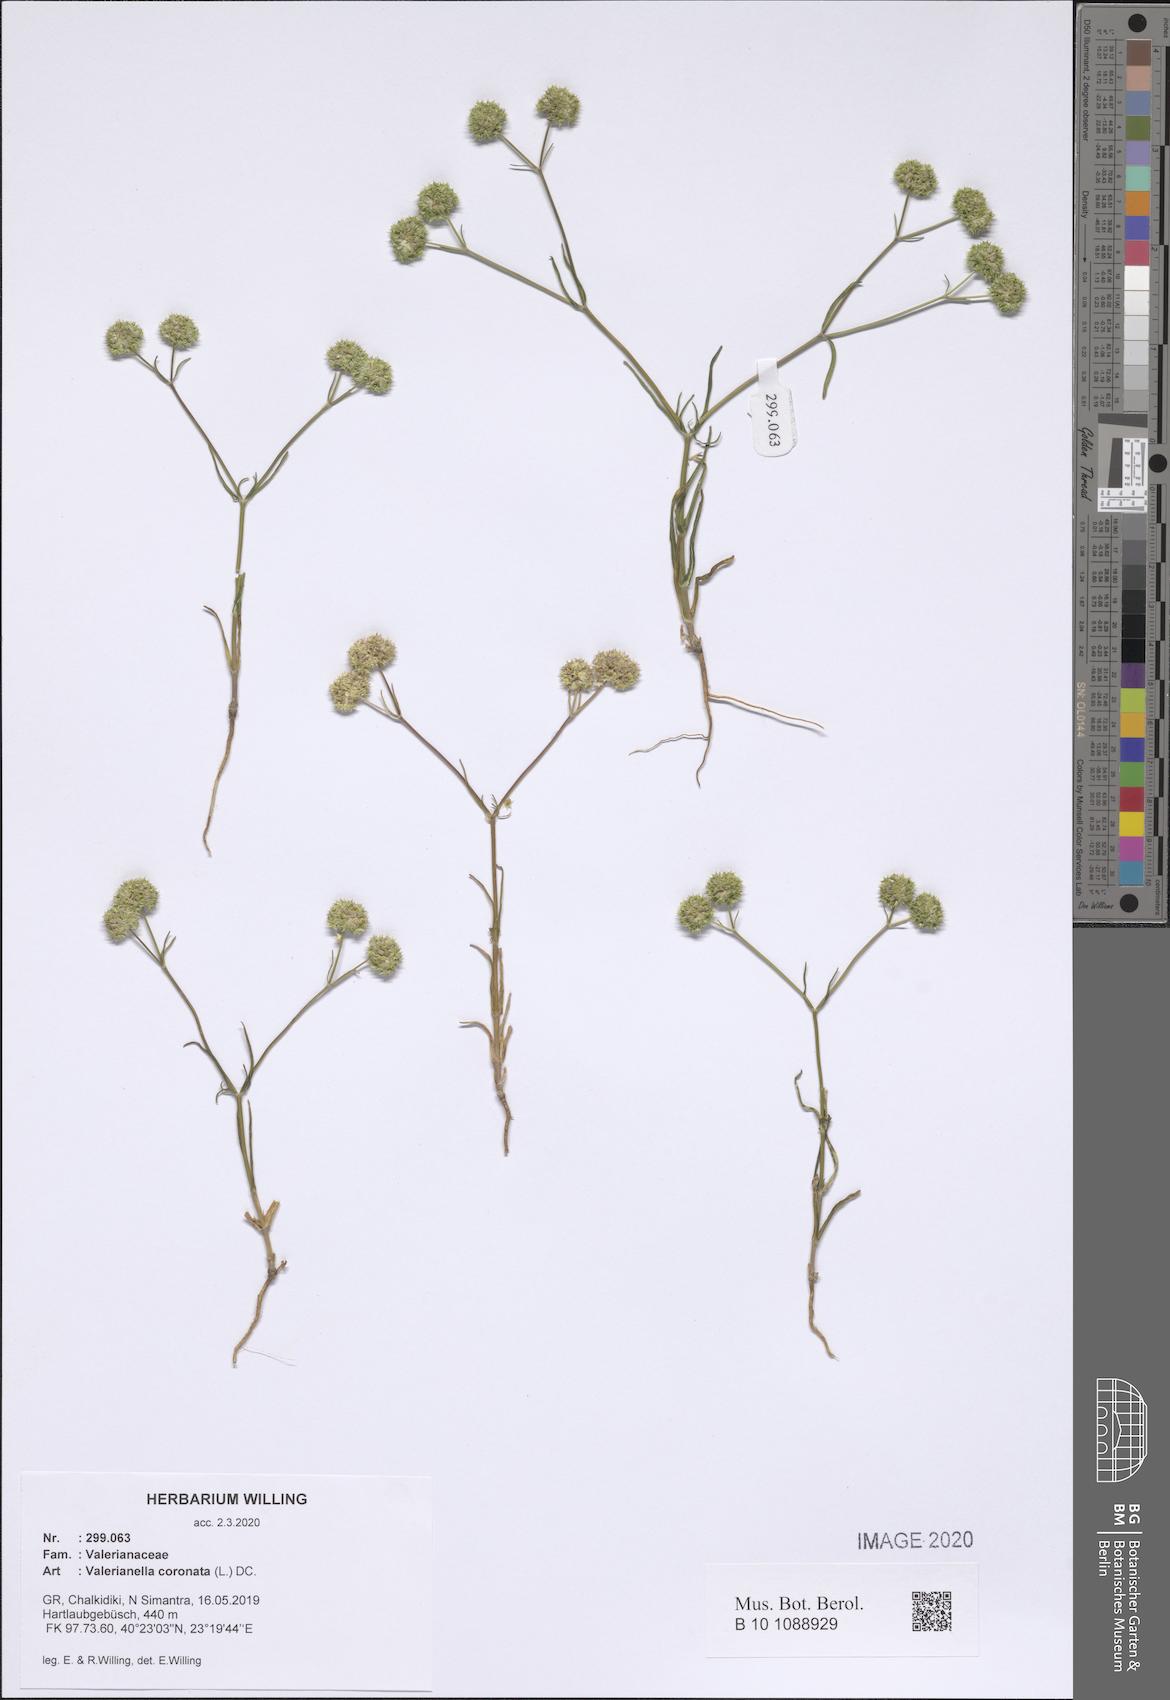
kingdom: Plantae
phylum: Tracheophyta
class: Magnoliopsida
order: Dipsacales
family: Caprifoliaceae
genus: Valerianella
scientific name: Valerianella coronata
